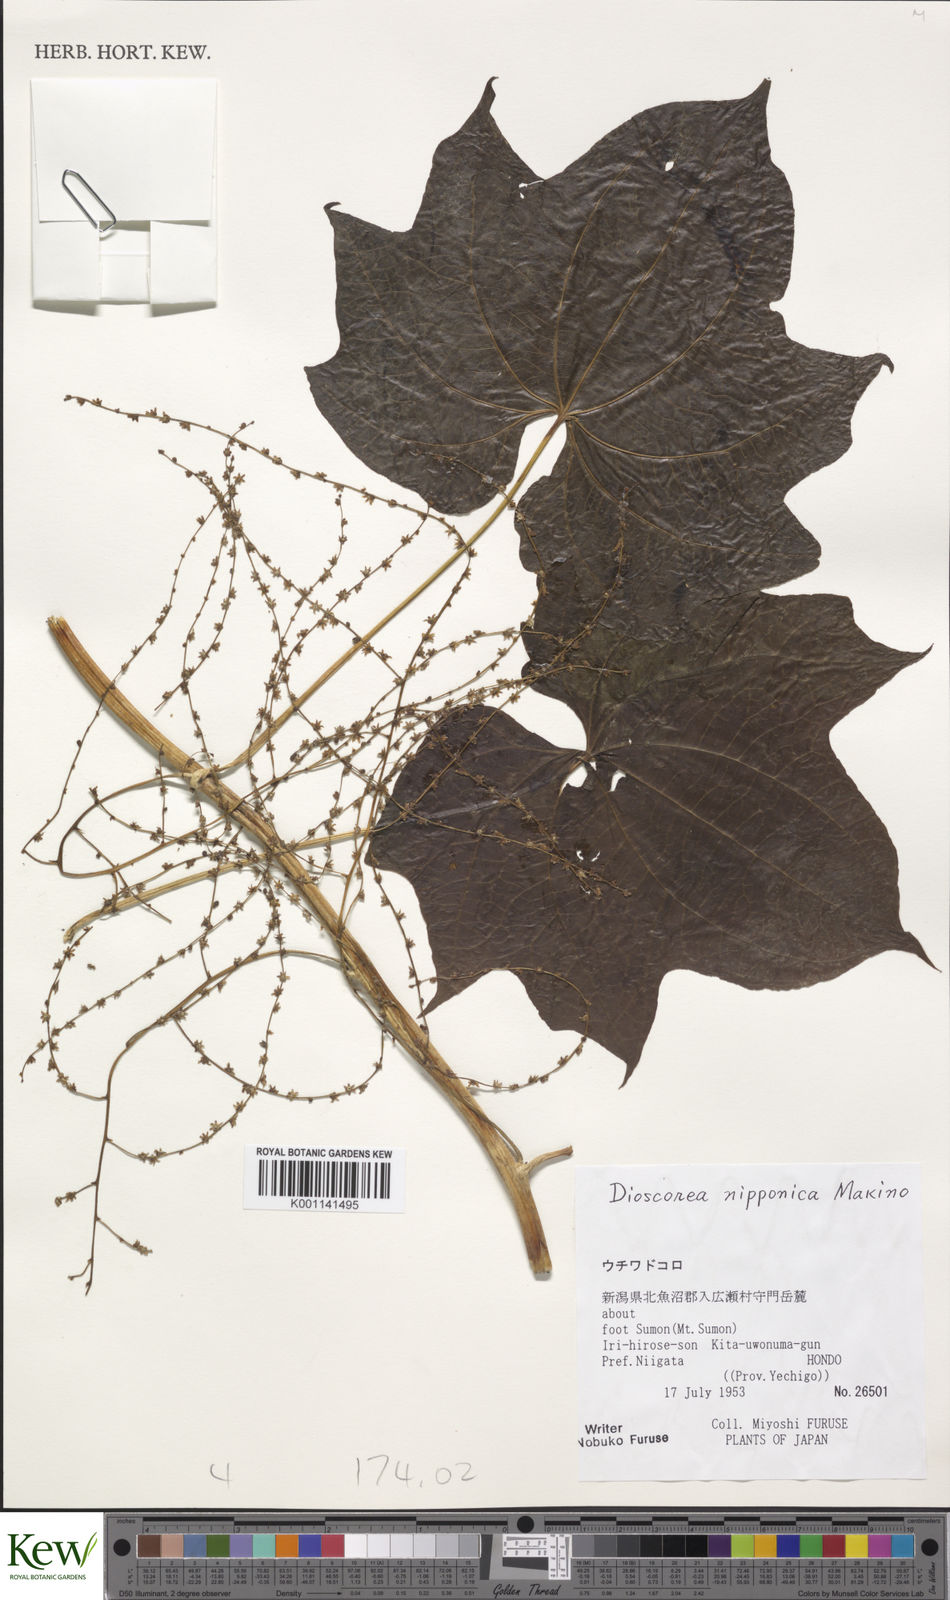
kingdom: Plantae
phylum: Tracheophyta
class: Liliopsida
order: Dioscoreales
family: Dioscoreaceae
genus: Dioscorea
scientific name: Dioscorea nipponica
